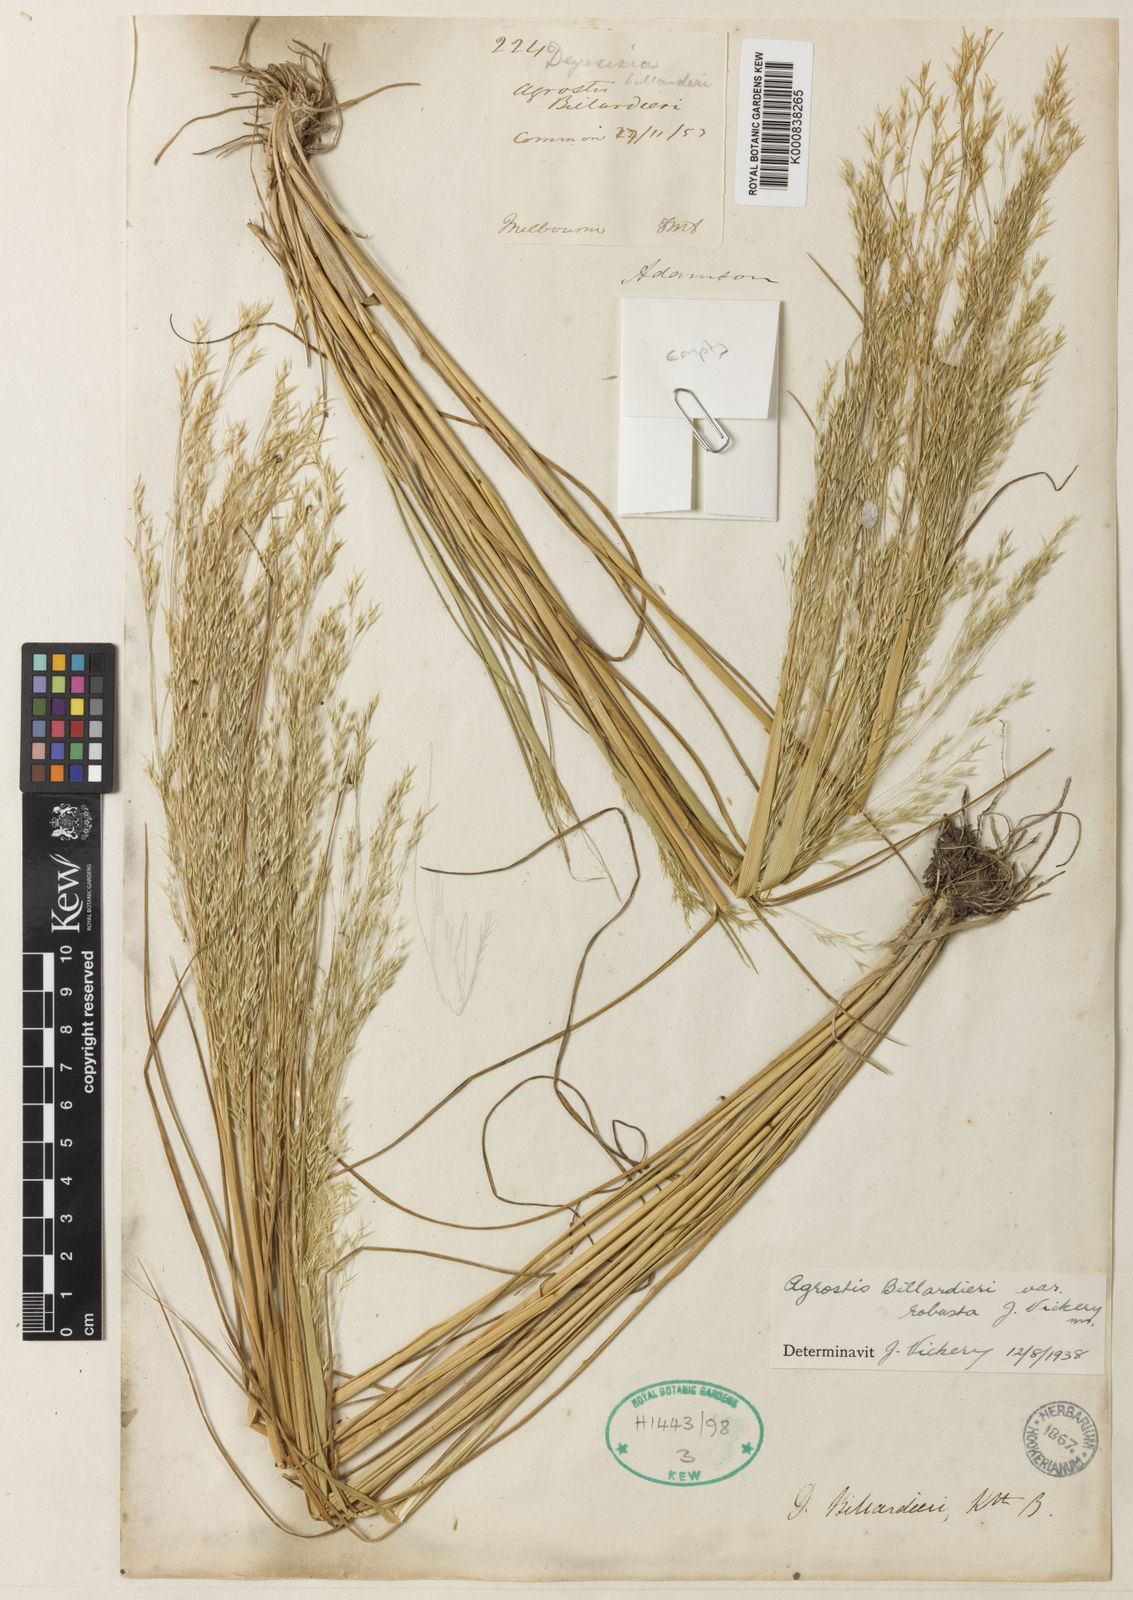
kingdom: Plantae
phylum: Tracheophyta
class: Liliopsida
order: Poales
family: Poaceae
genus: Lachnagrostis
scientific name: Lachnagrostis robusta
